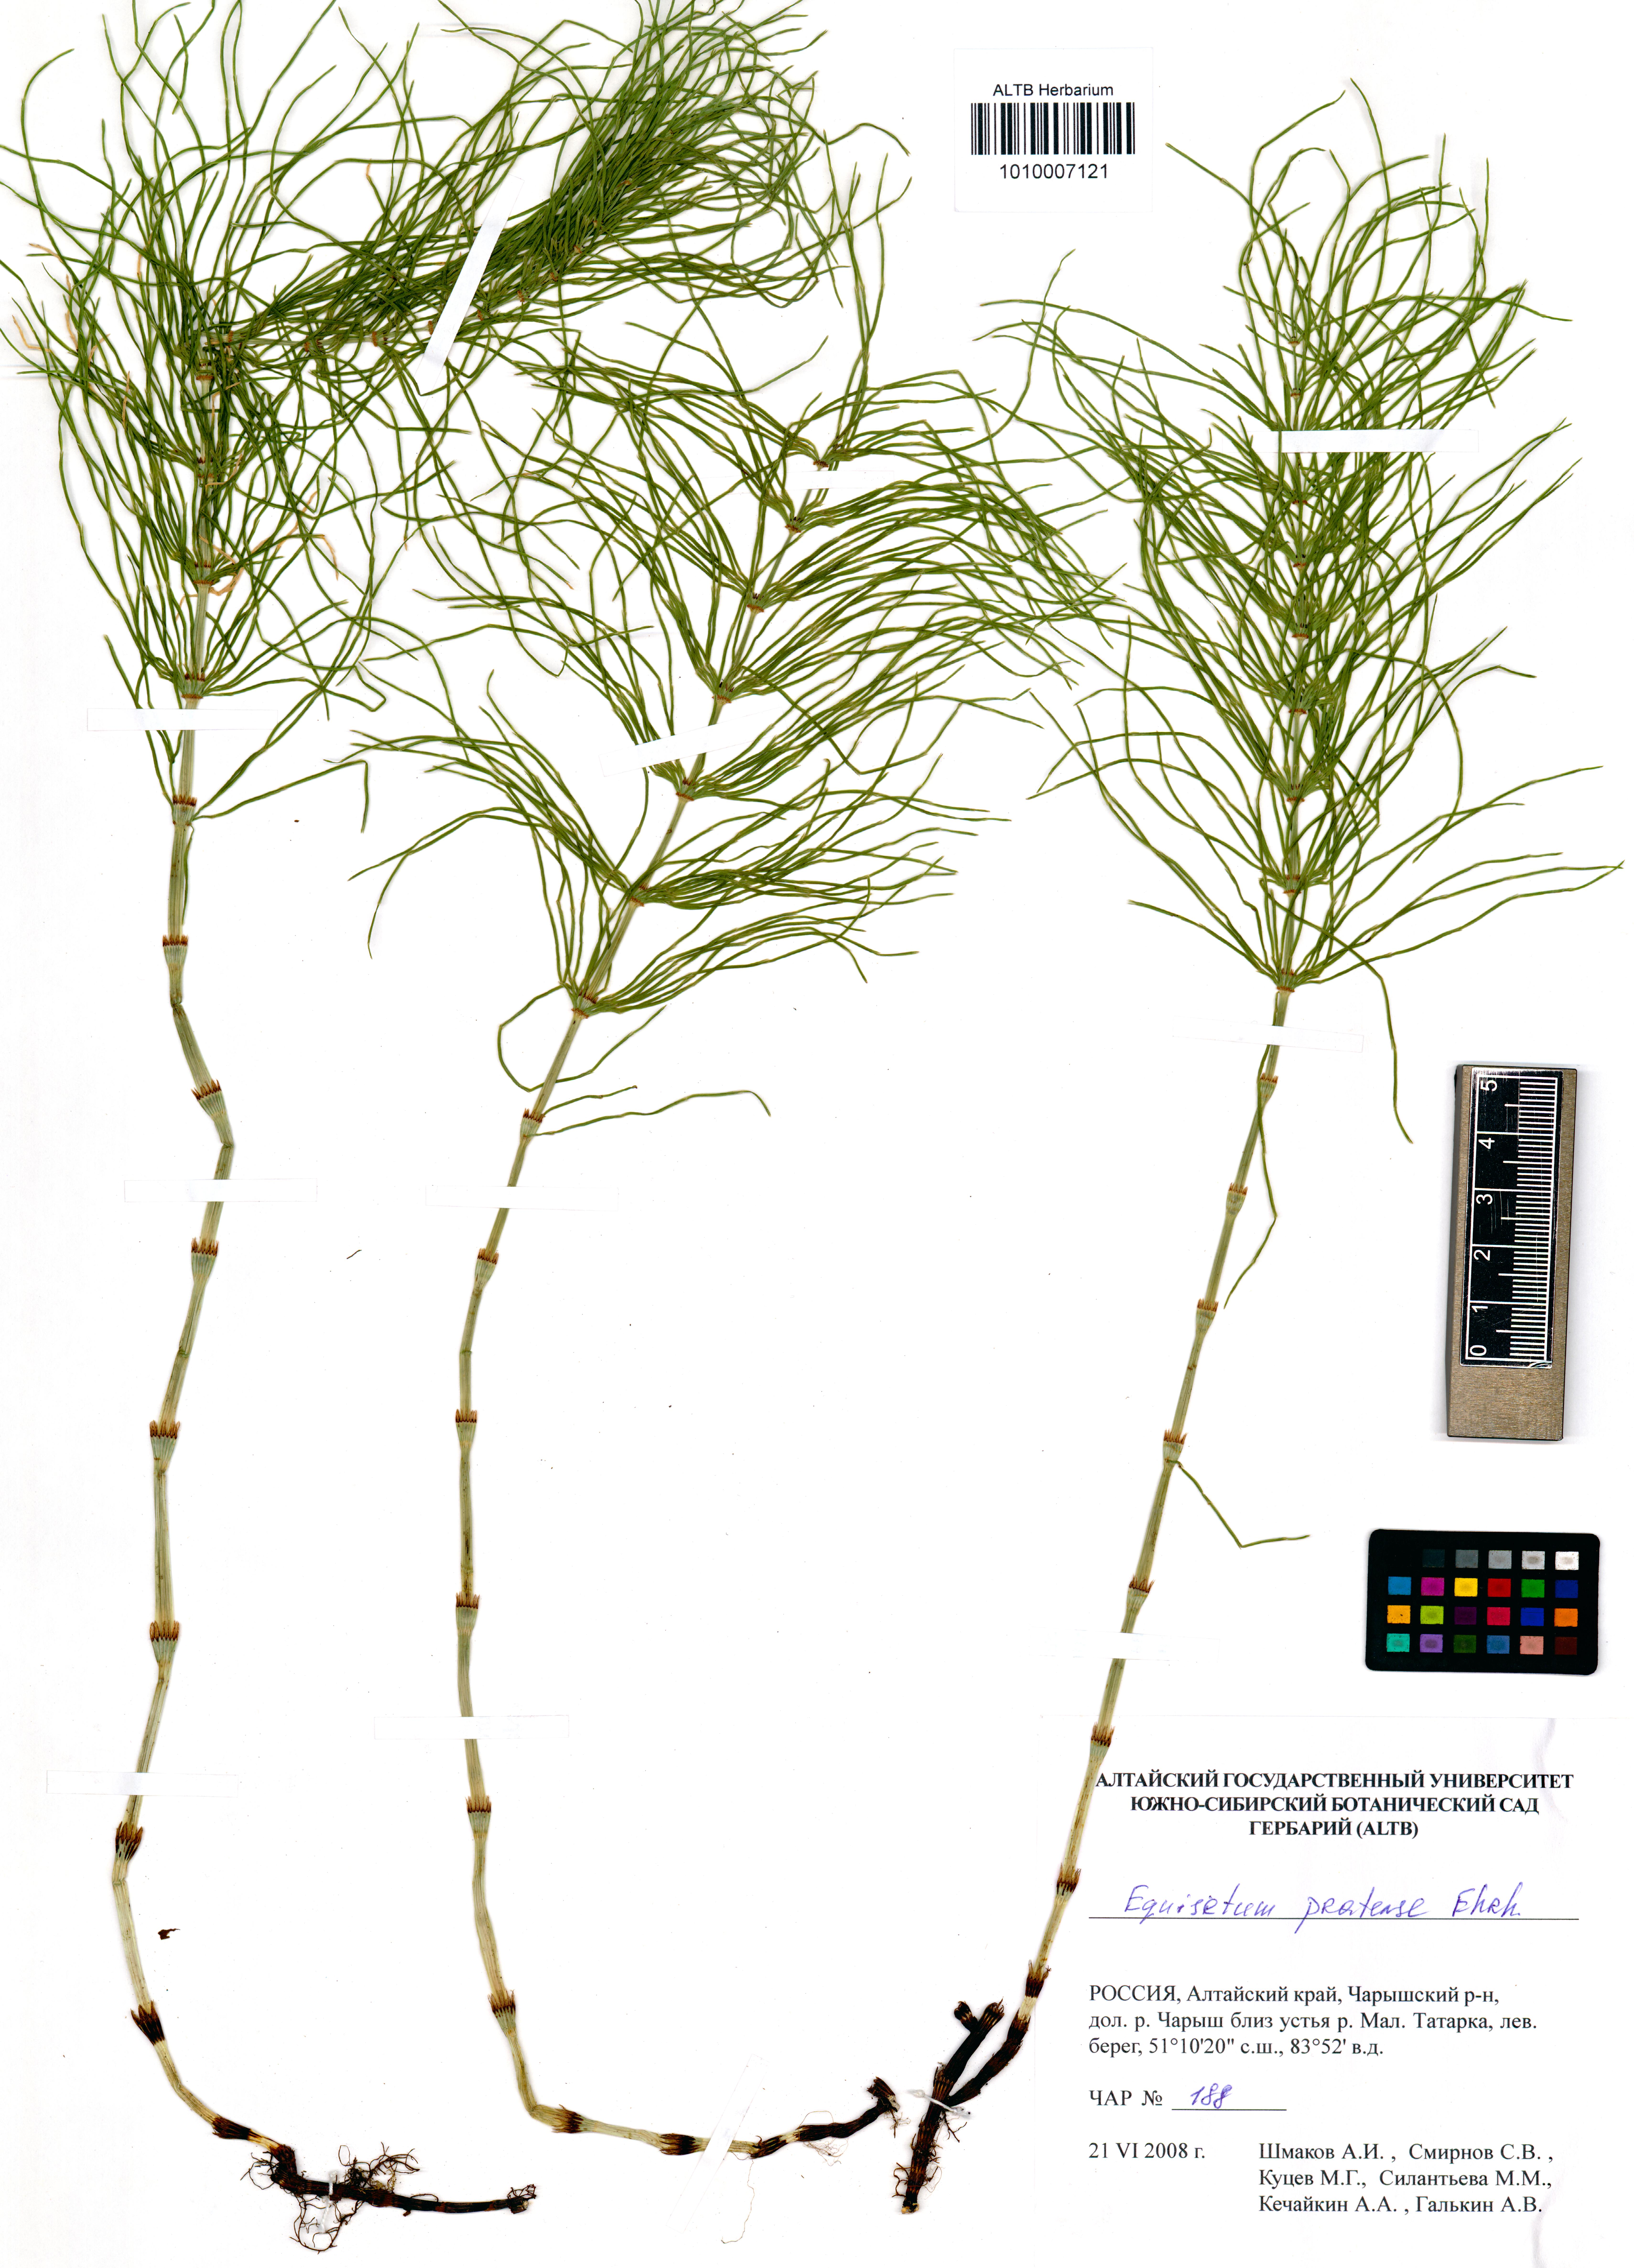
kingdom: Plantae
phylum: Tracheophyta
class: Polypodiopsida
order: Equisetales
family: Equisetaceae
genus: Equisetum
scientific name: Equisetum pratense
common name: Meadow horsetail
